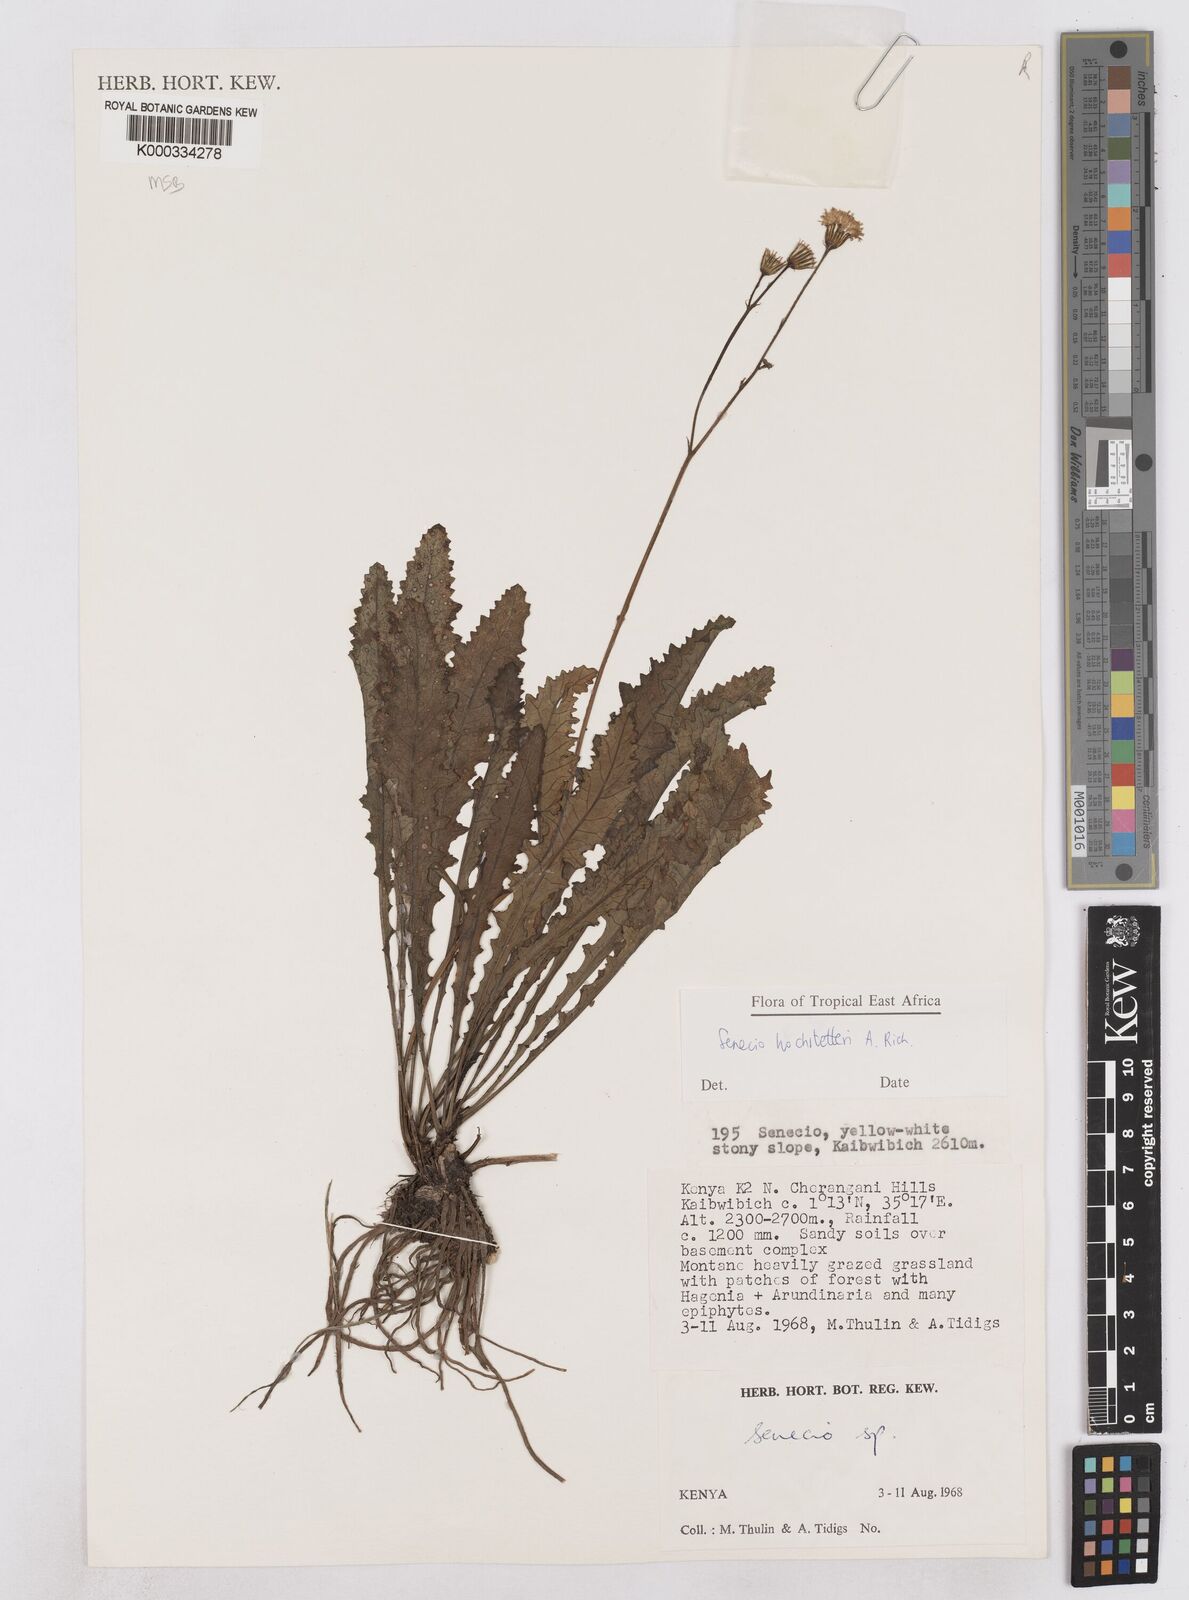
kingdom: Plantae
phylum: Tracheophyta
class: Magnoliopsida
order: Asterales
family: Asteraceae
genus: Senecio
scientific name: Senecio hochstetteri
